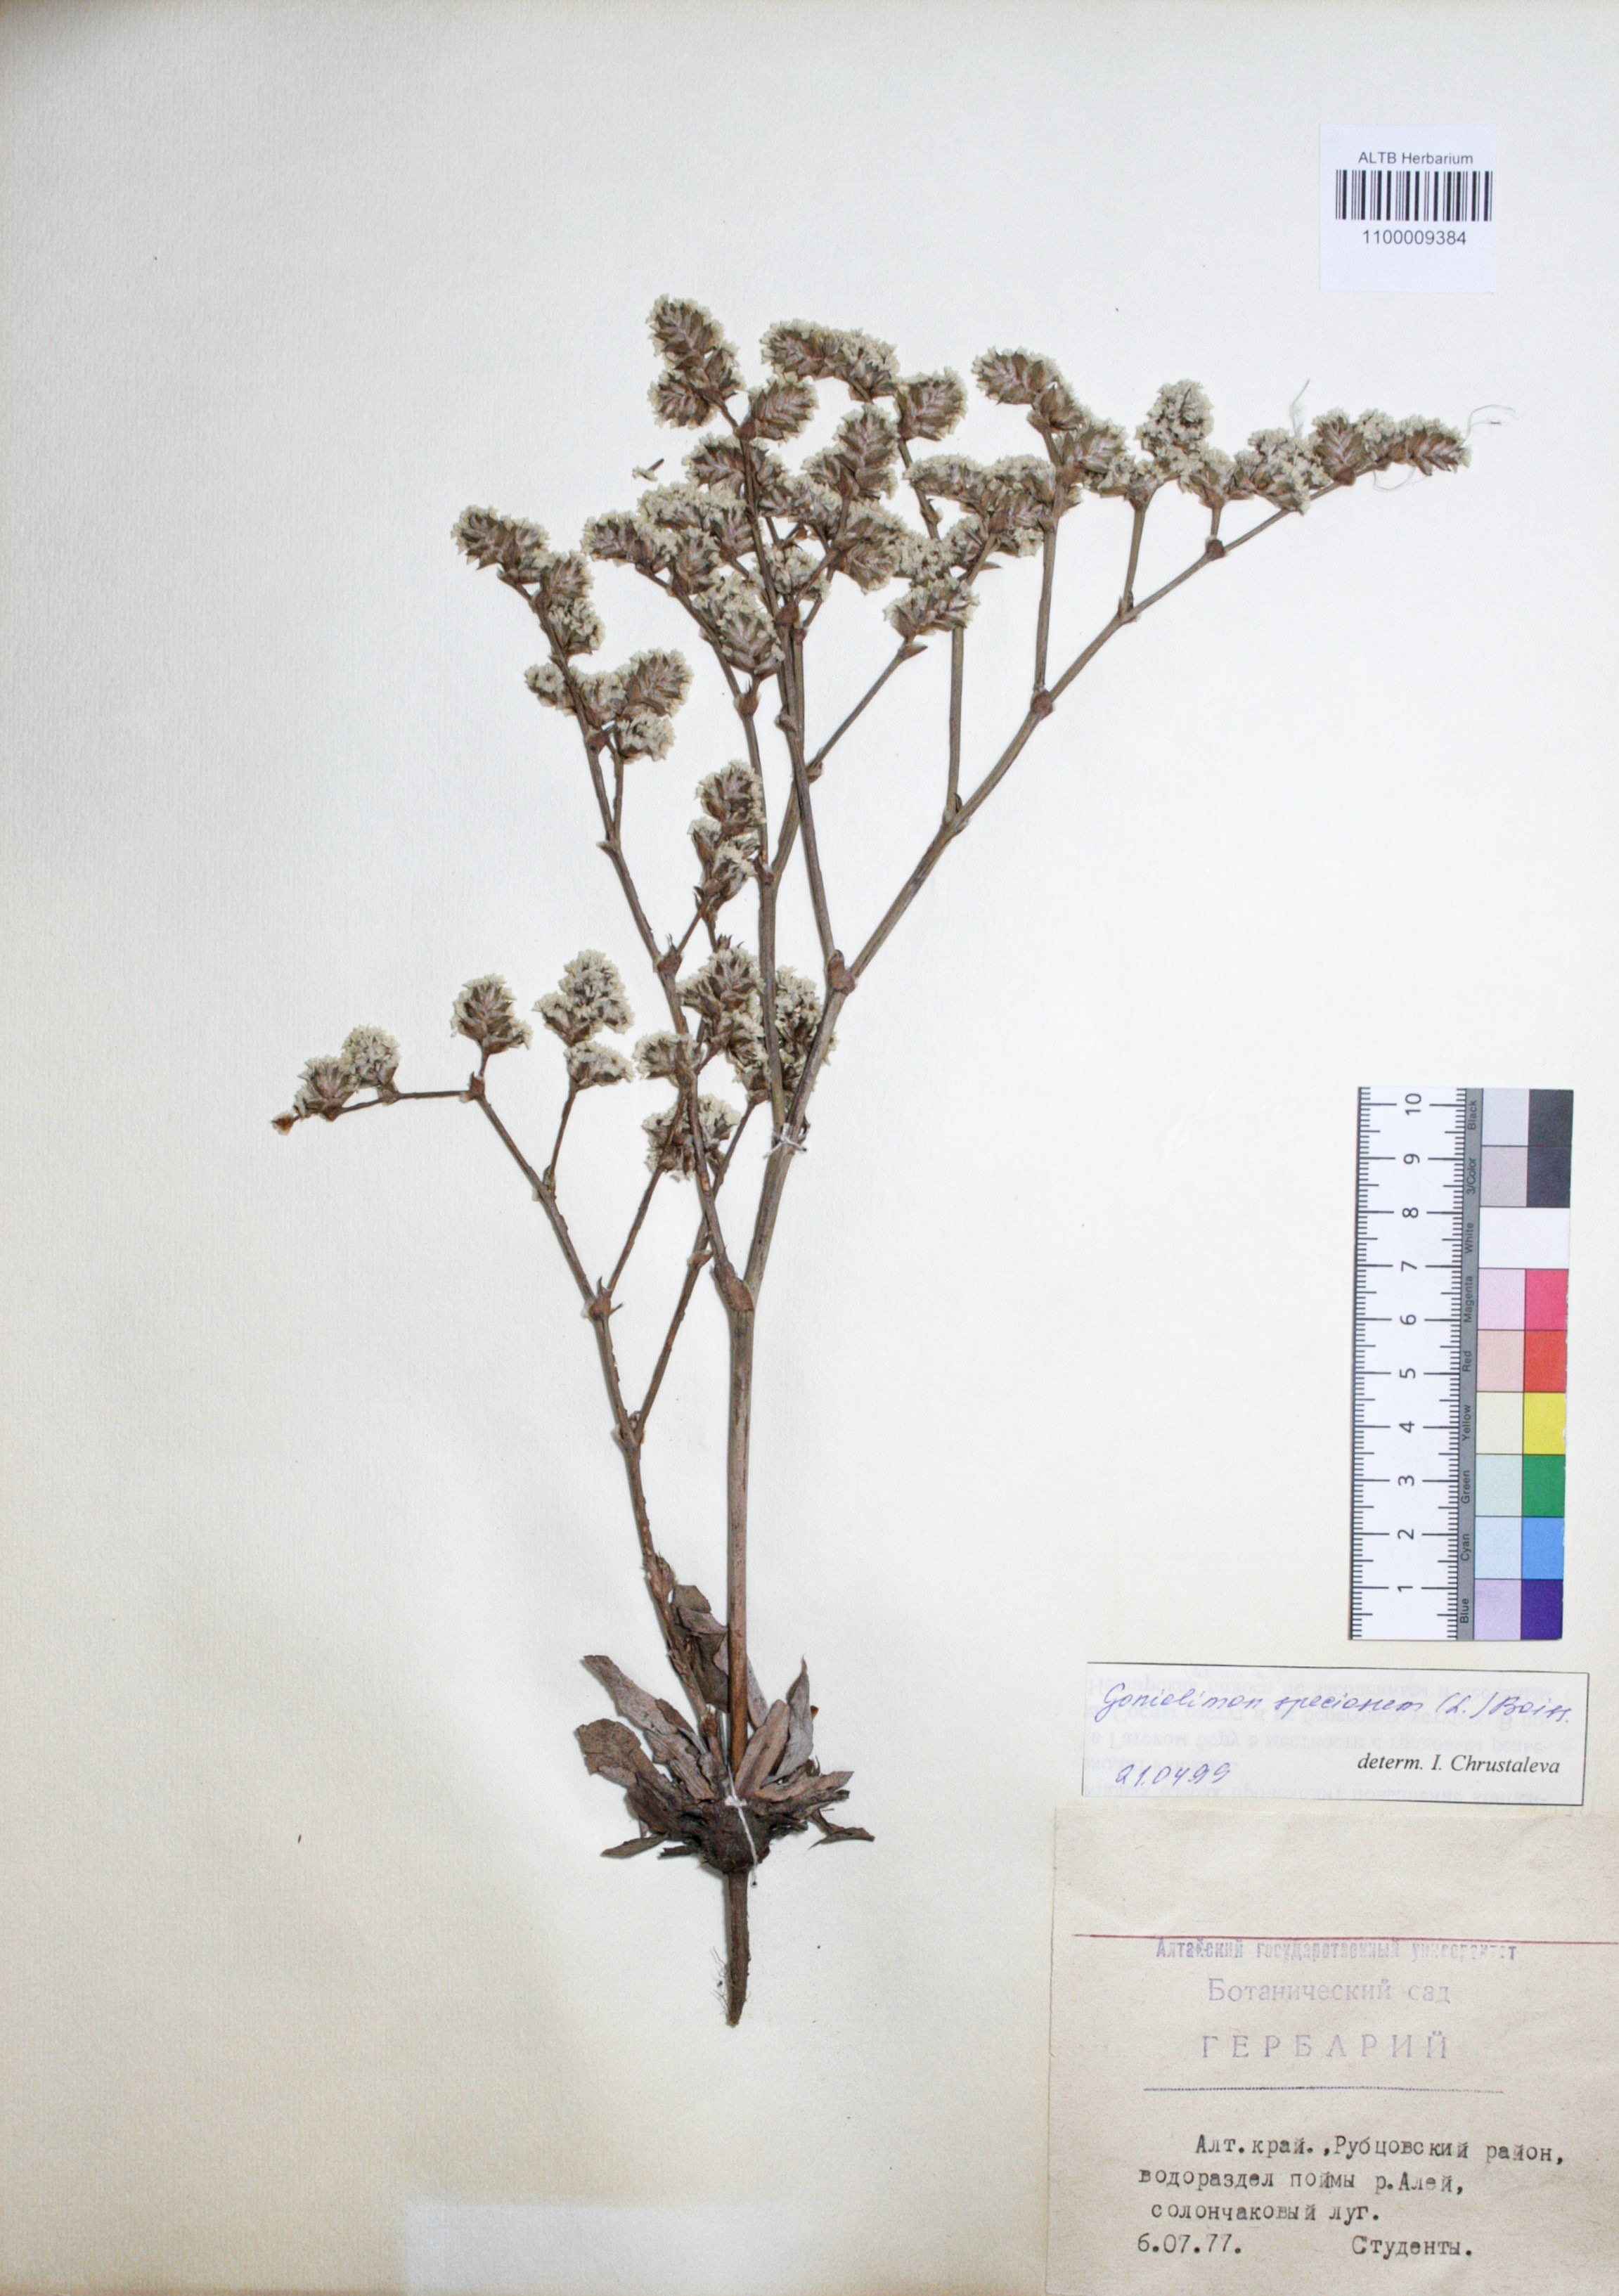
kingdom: Plantae
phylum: Tracheophyta
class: Magnoliopsida
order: Caryophyllales
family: Plumbaginaceae
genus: Goniolimon
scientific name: Goniolimon speciosum
